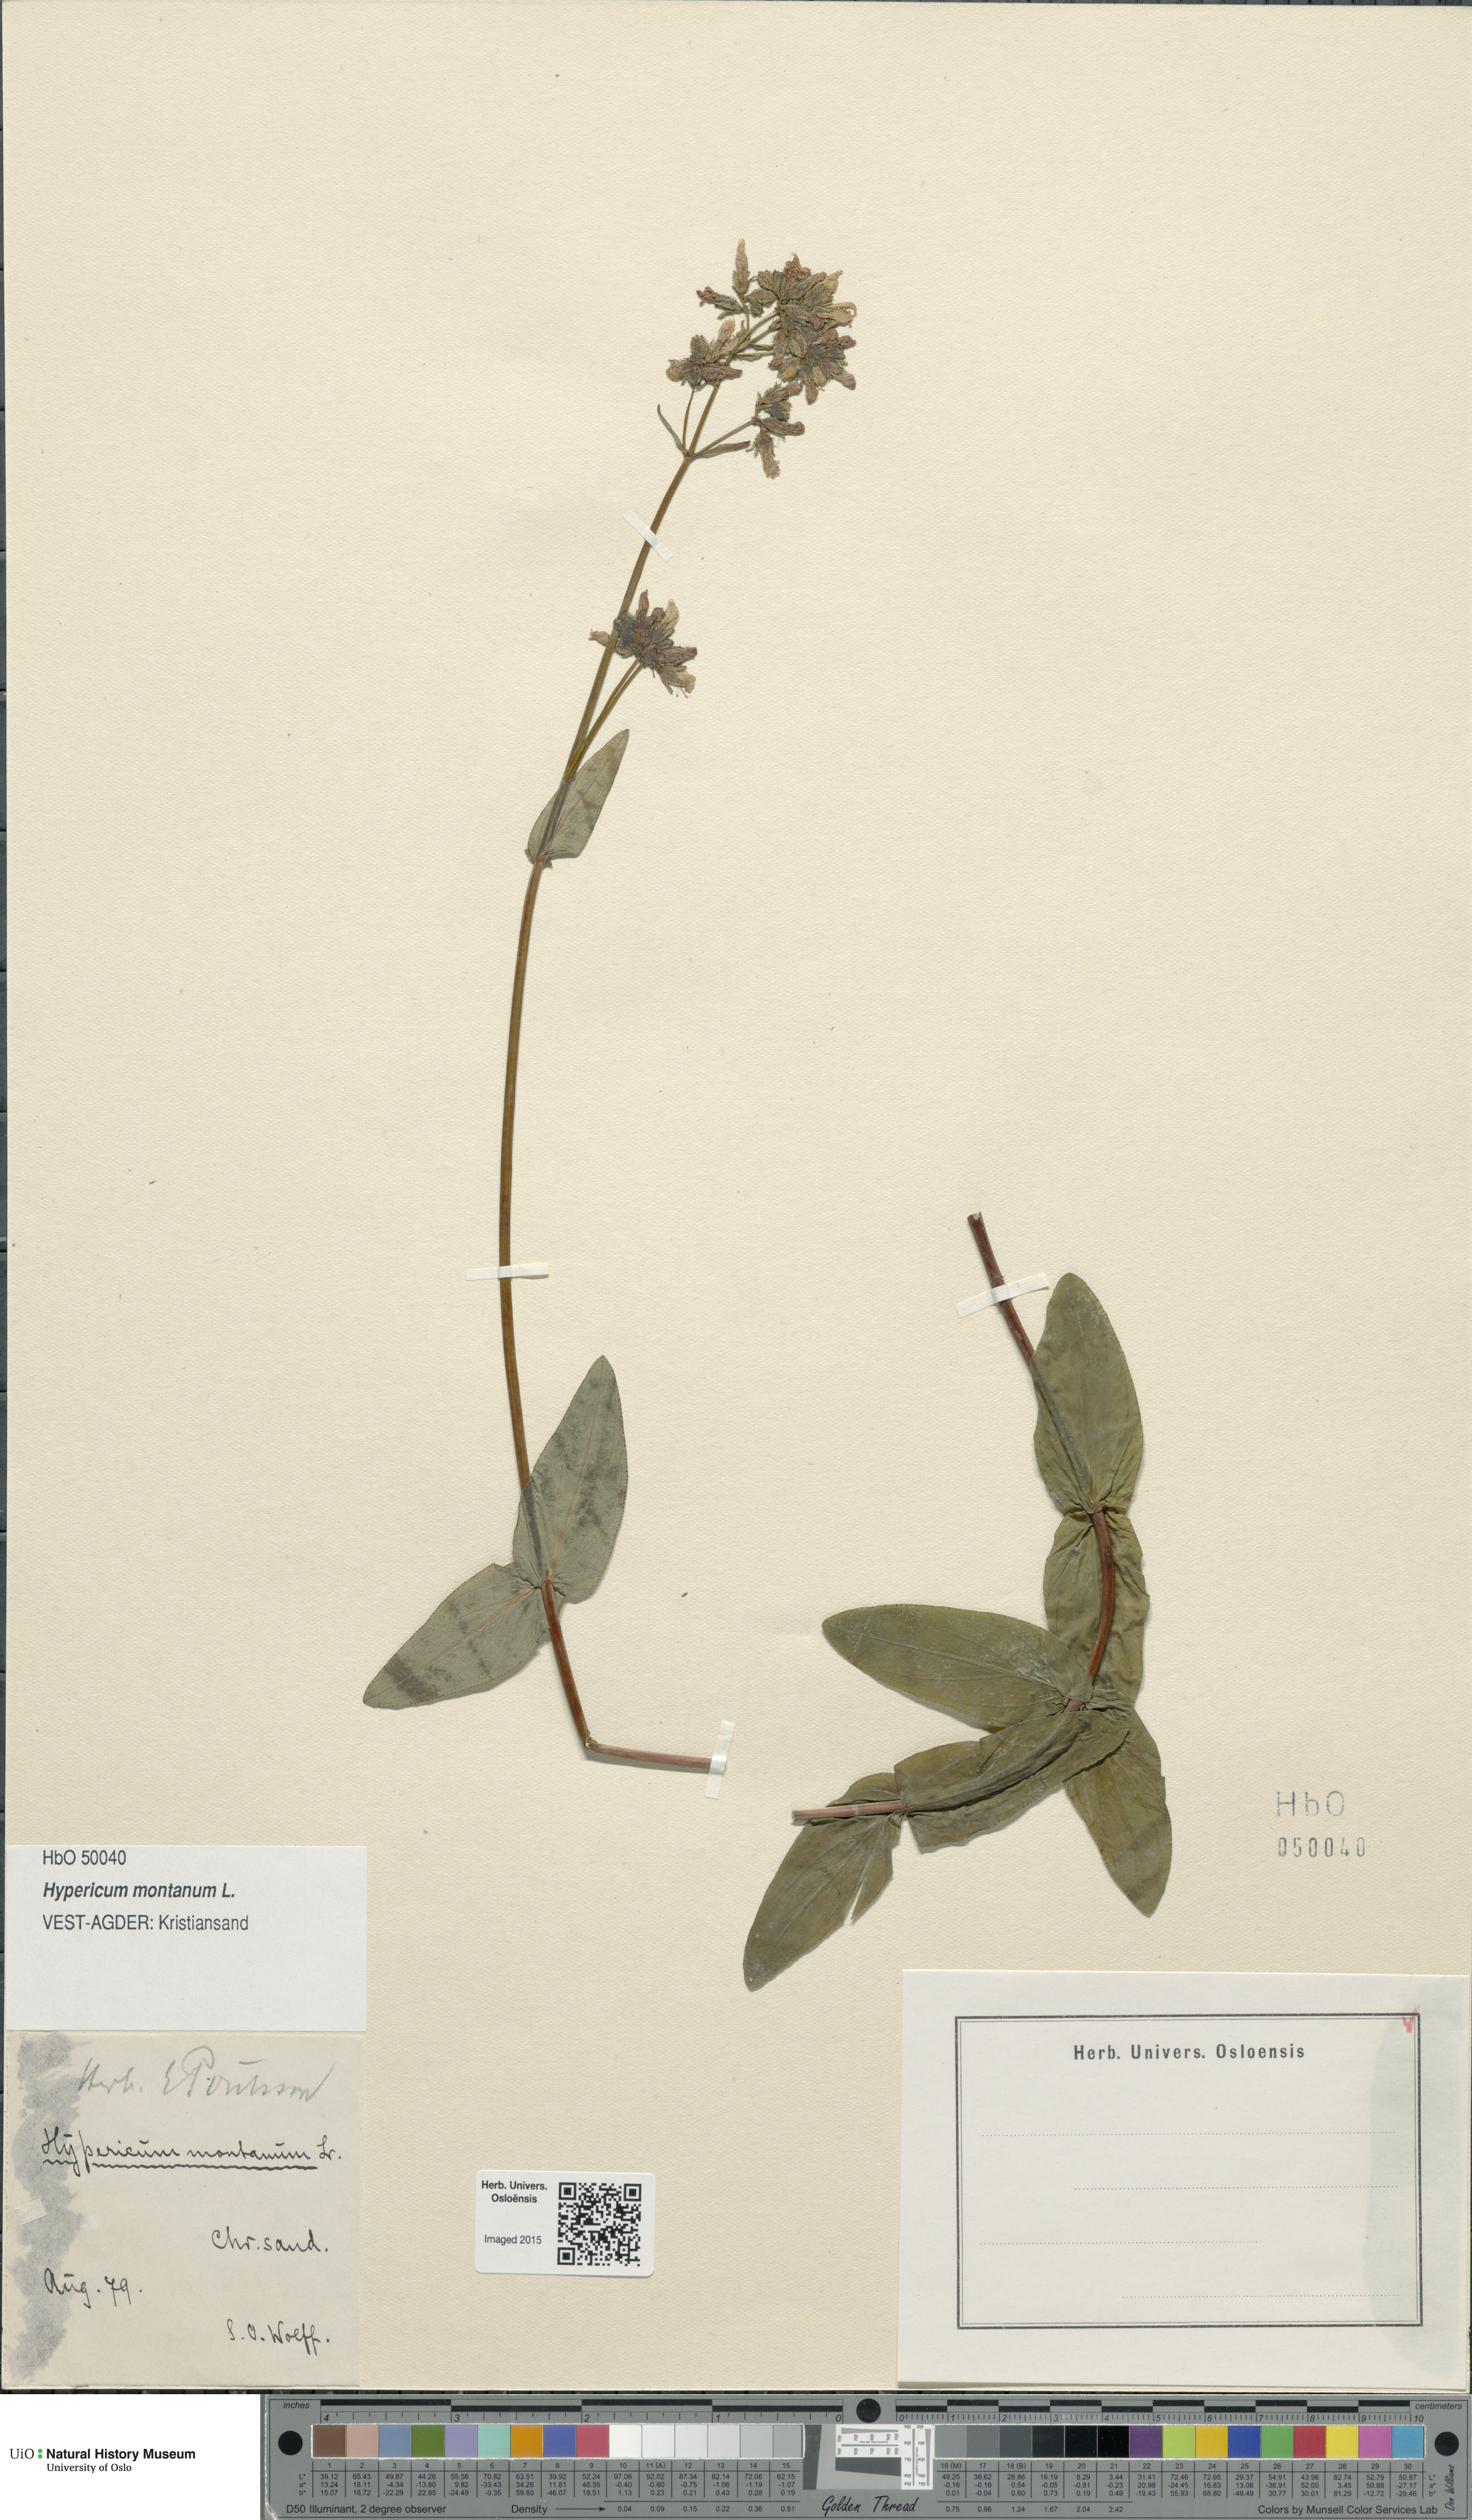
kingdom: Plantae
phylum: Tracheophyta
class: Magnoliopsida
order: Malpighiales
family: Hypericaceae
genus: Hypericum
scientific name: Hypericum montanum
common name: Pale st. john's-wort
